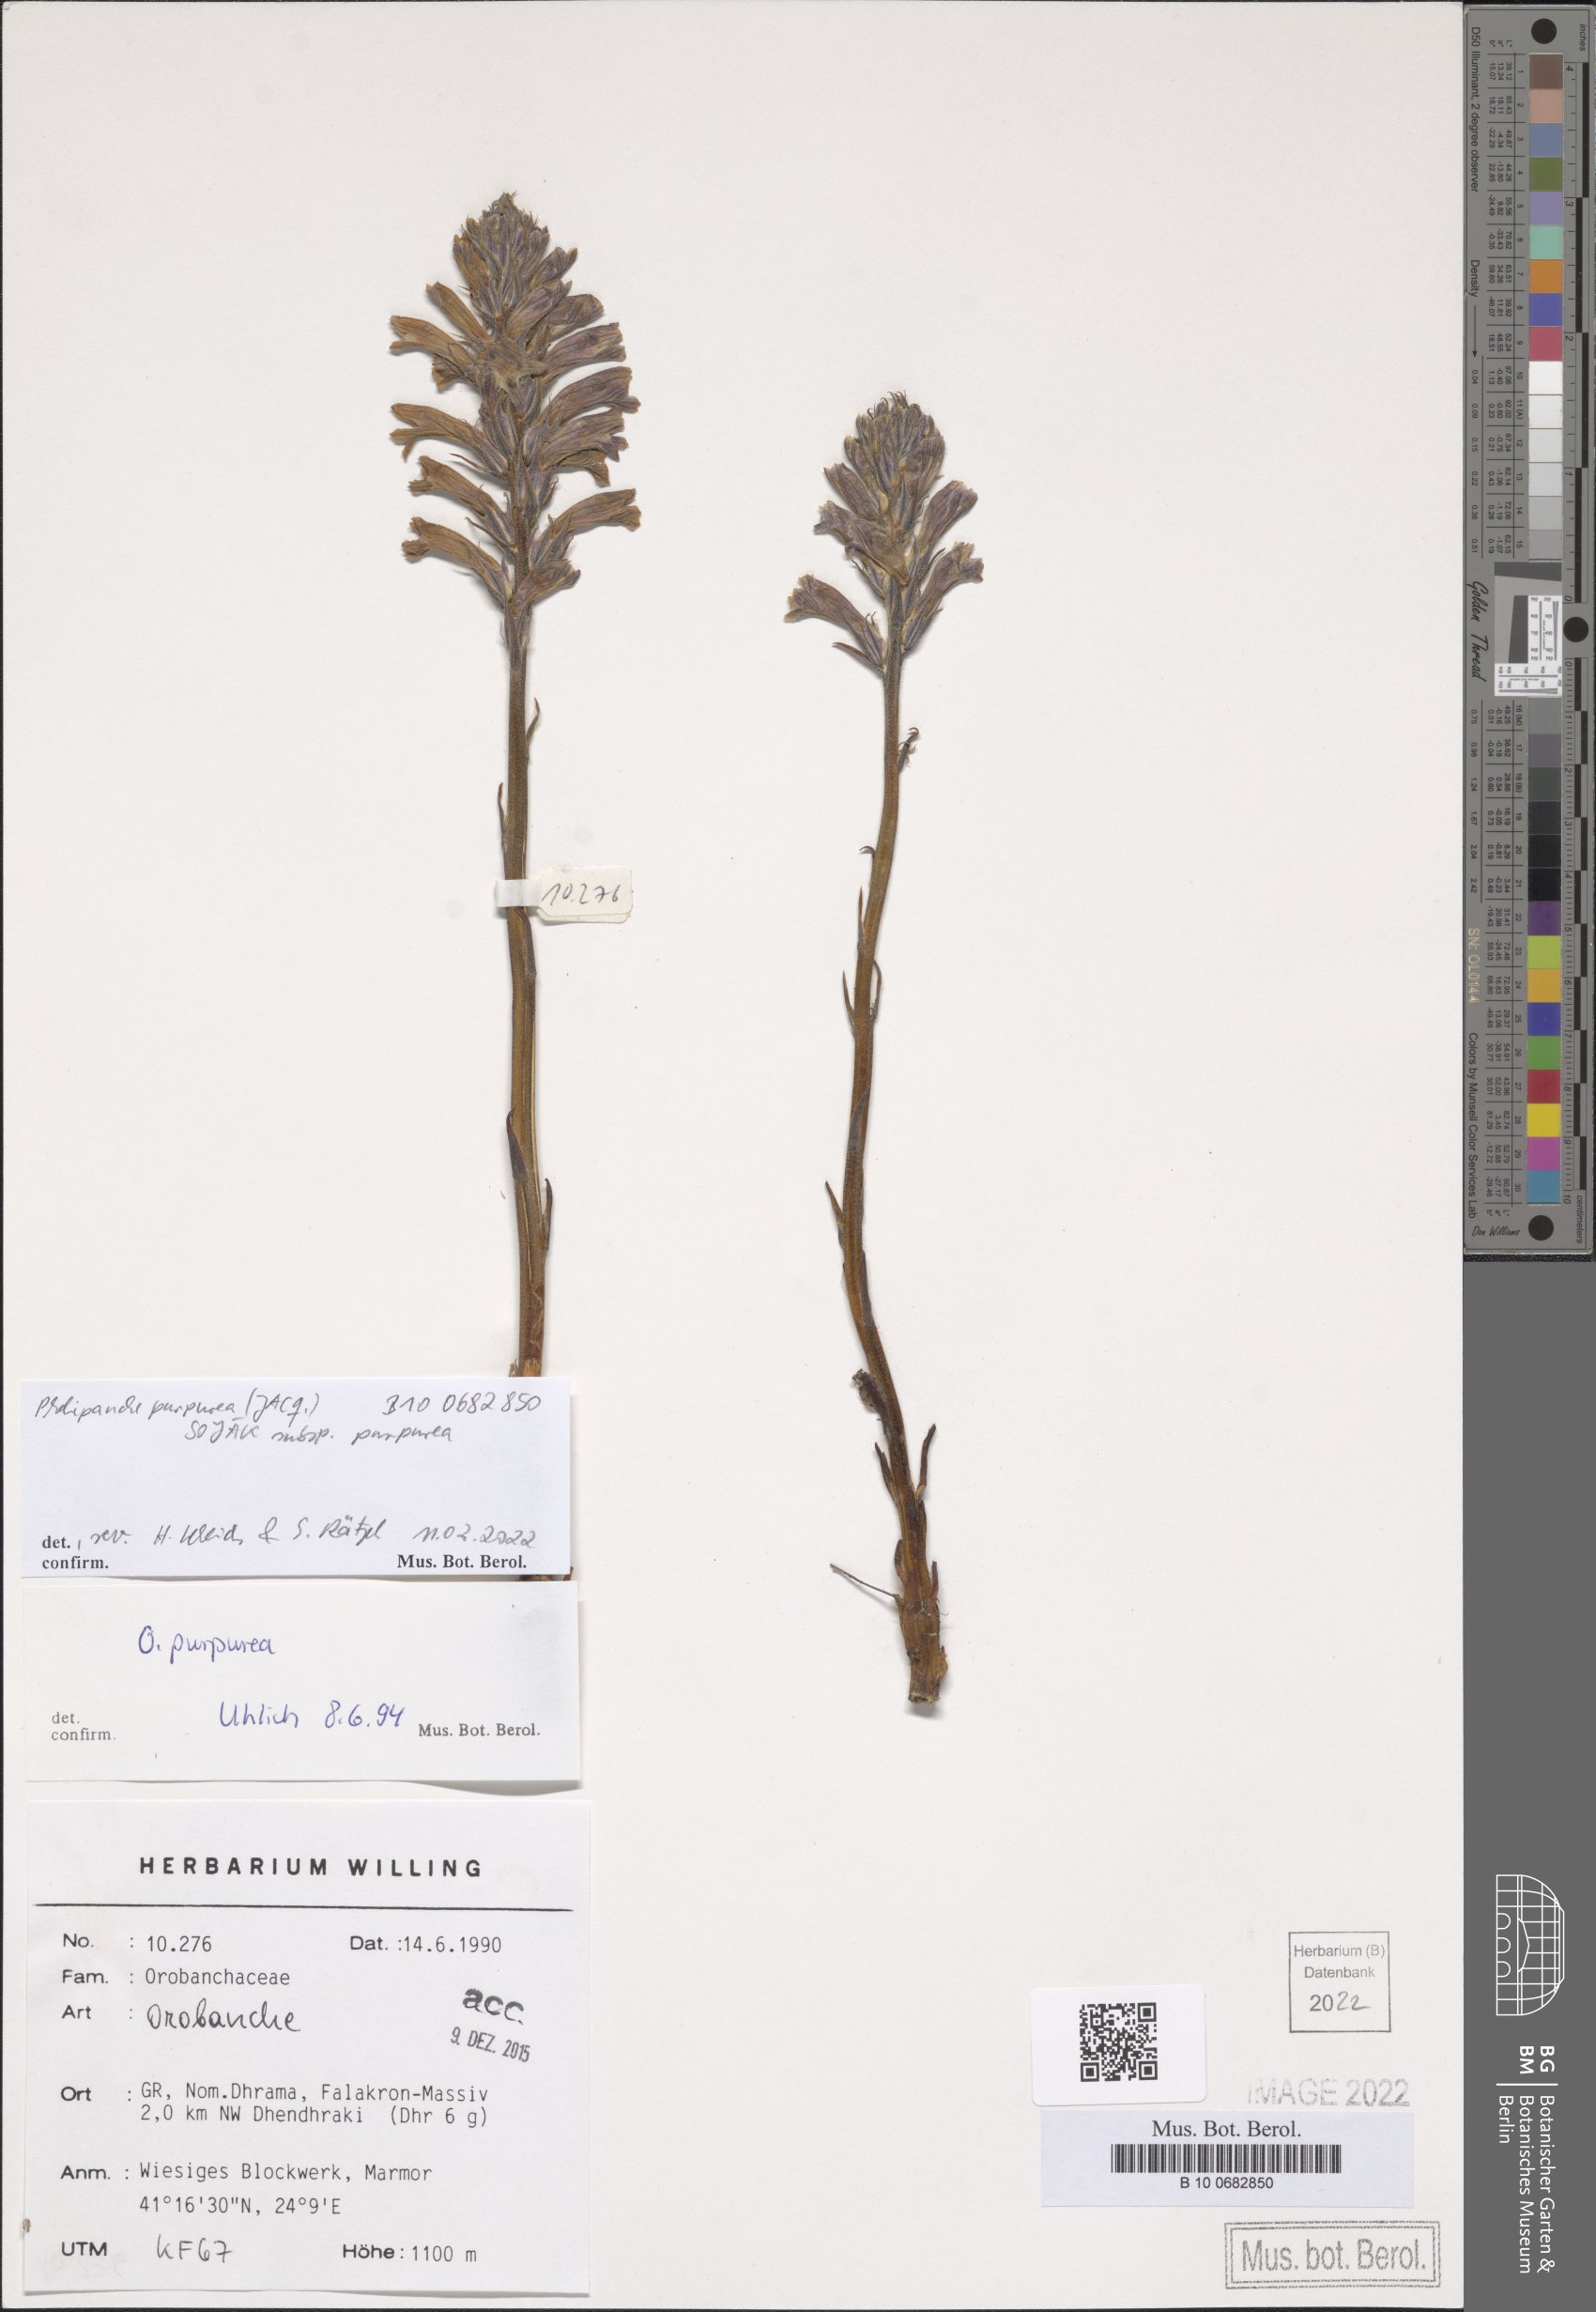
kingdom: Plantae
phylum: Tracheophyta
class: Magnoliopsida
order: Lamiales
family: Orobanchaceae
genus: Phelipanche
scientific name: Phelipanche purpurea
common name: Purple broomrape
